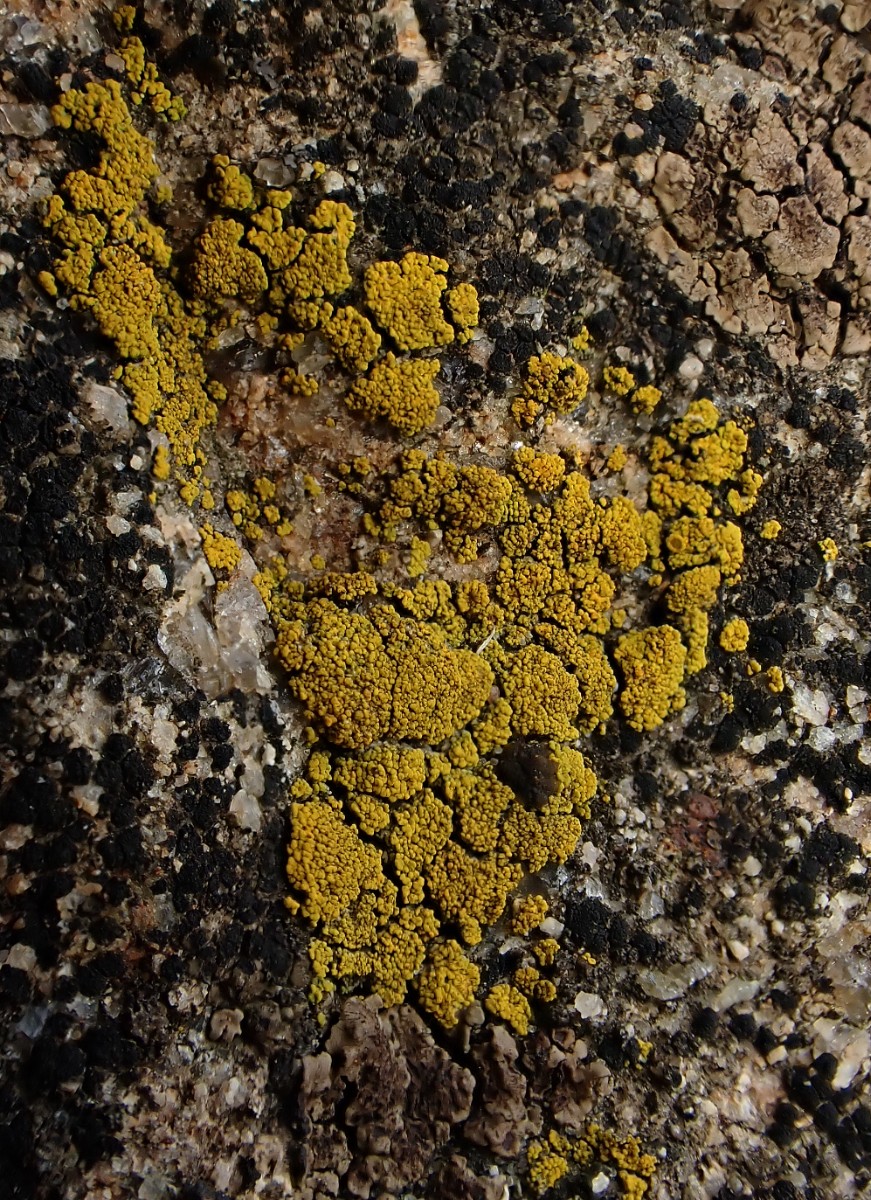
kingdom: Fungi
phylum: Ascomycota
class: Candelariomycetes
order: Candelariales
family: Candelariaceae
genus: Candelariella
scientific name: Candelariella vitellina
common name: almindelig æggeblommelav
